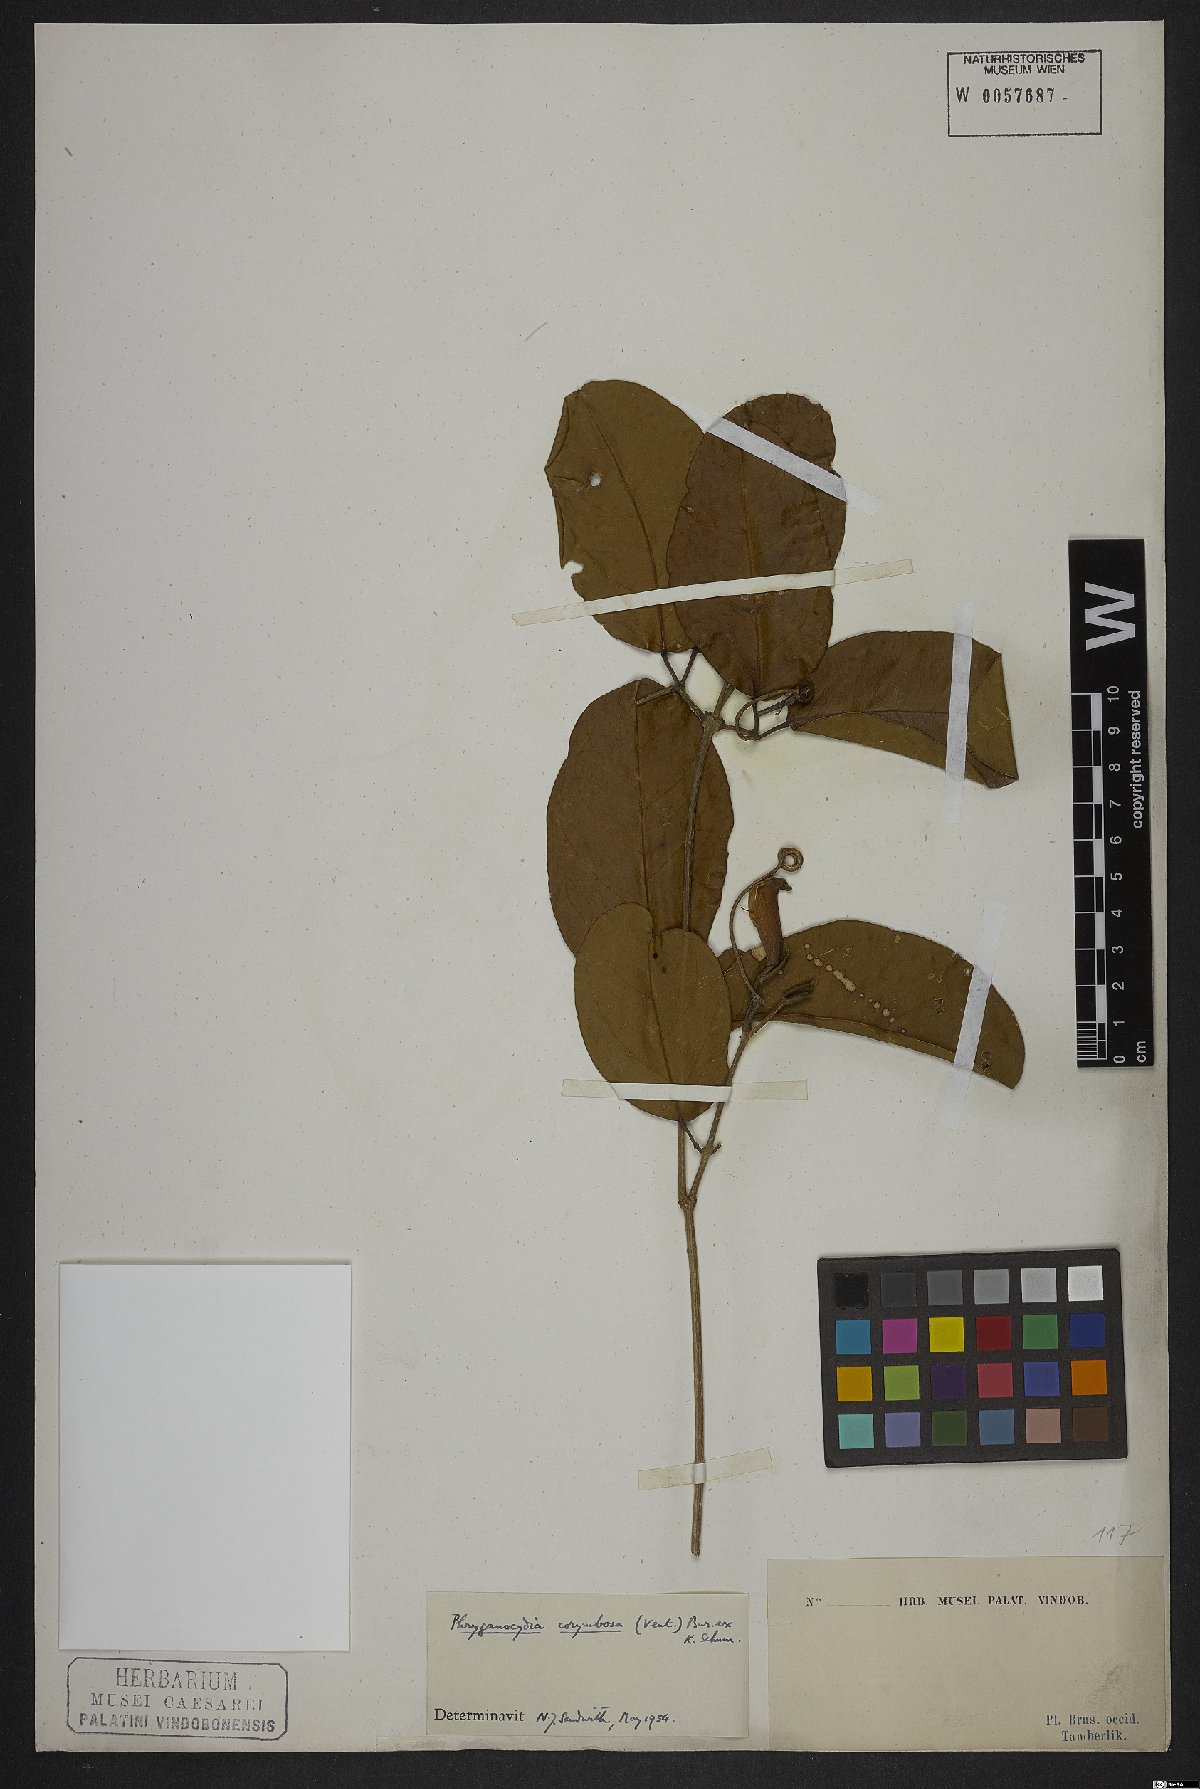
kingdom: Plantae
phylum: Tracheophyta
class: Magnoliopsida
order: Lamiales
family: Bignoniaceae
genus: Bignonia
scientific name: Bignonia corymbosa
